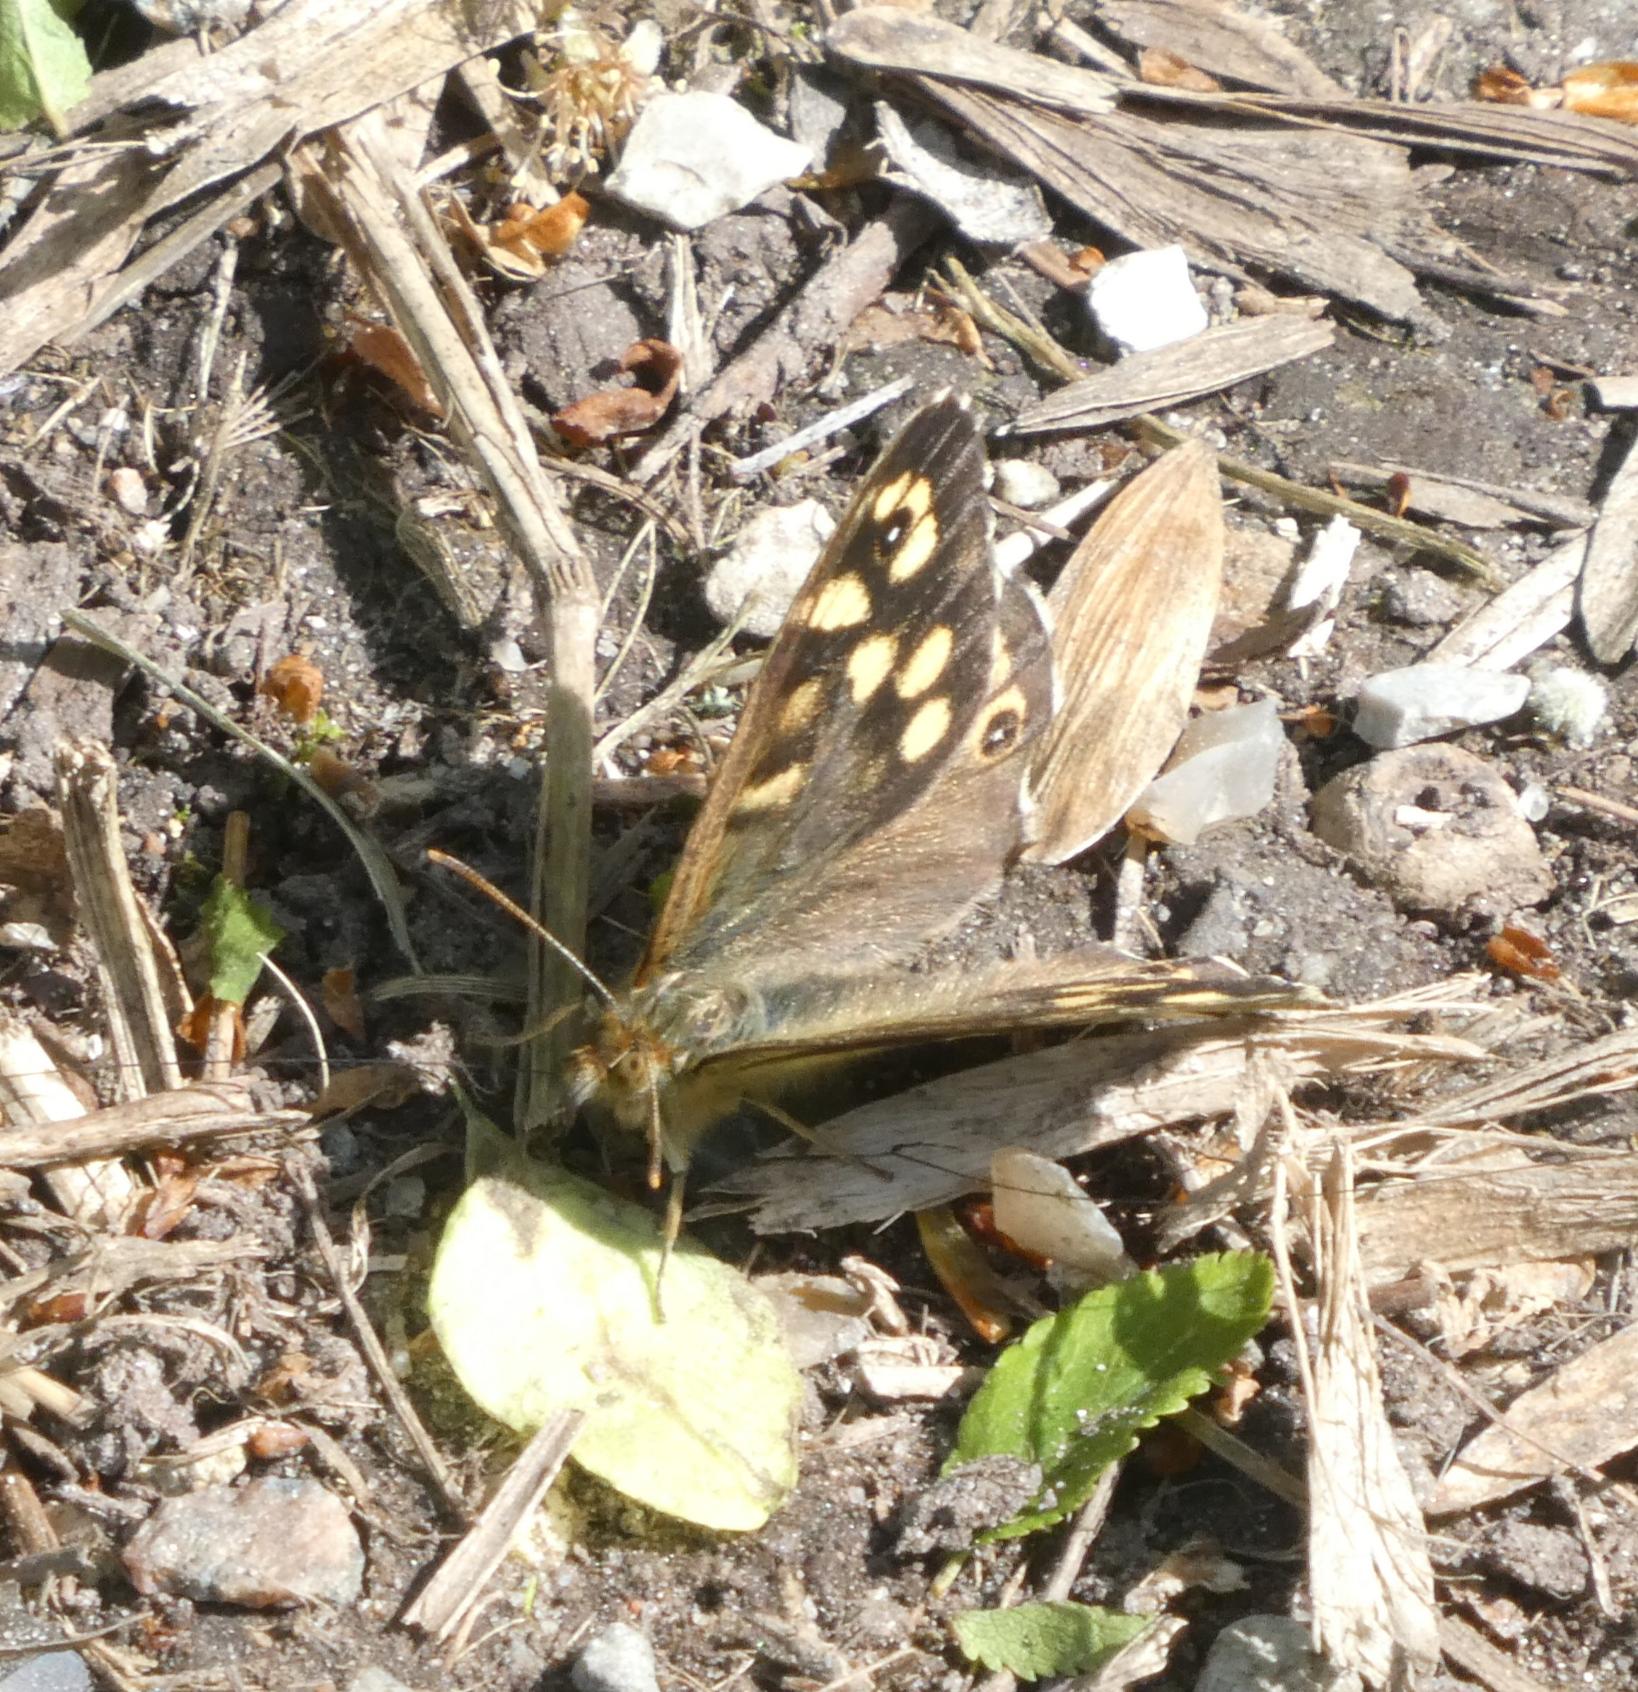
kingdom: Animalia
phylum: Arthropoda
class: Insecta
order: Lepidoptera
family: Nymphalidae
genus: Pararge
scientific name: Pararge aegeria
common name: Skovrandøje
